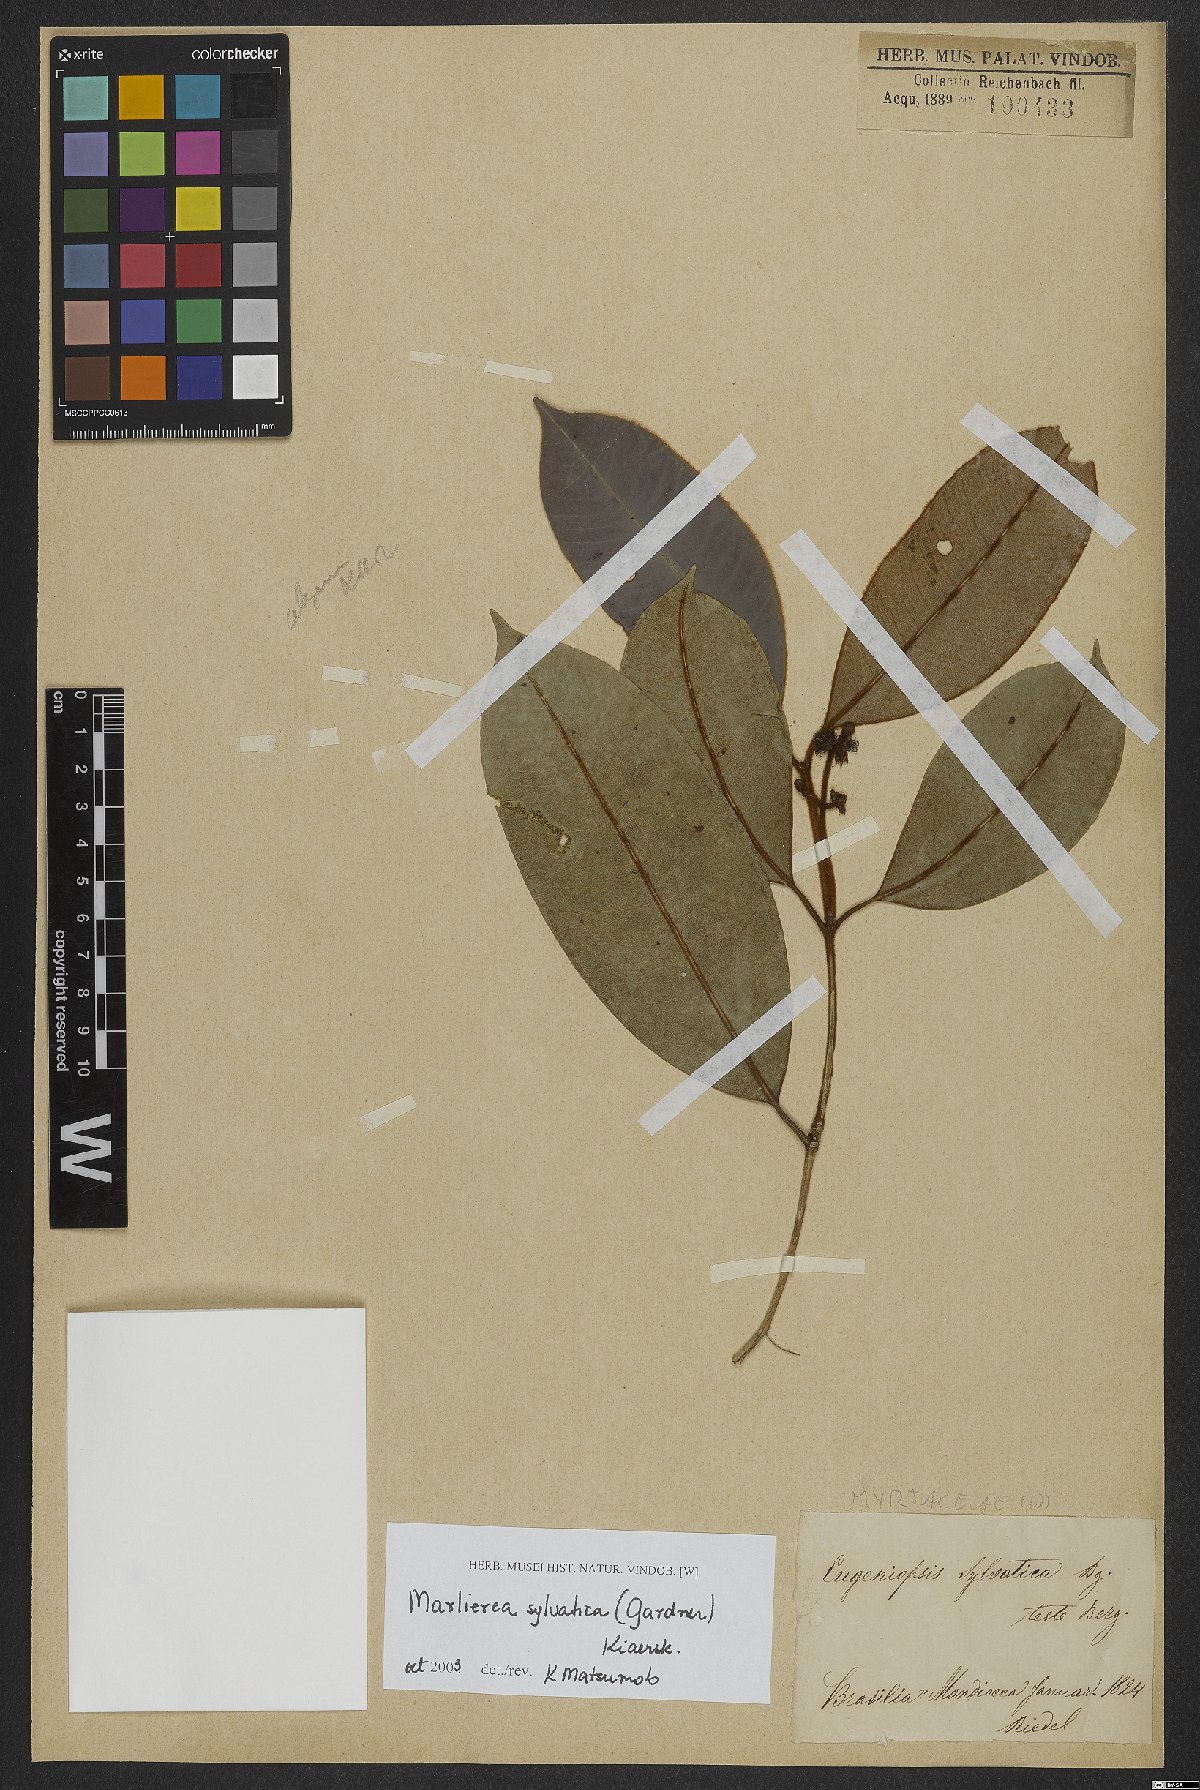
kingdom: Plantae
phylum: Tracheophyta
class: Magnoliopsida
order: Myrtales
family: Myrtaceae
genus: Myrcia
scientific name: Myrcia ferruginosa
